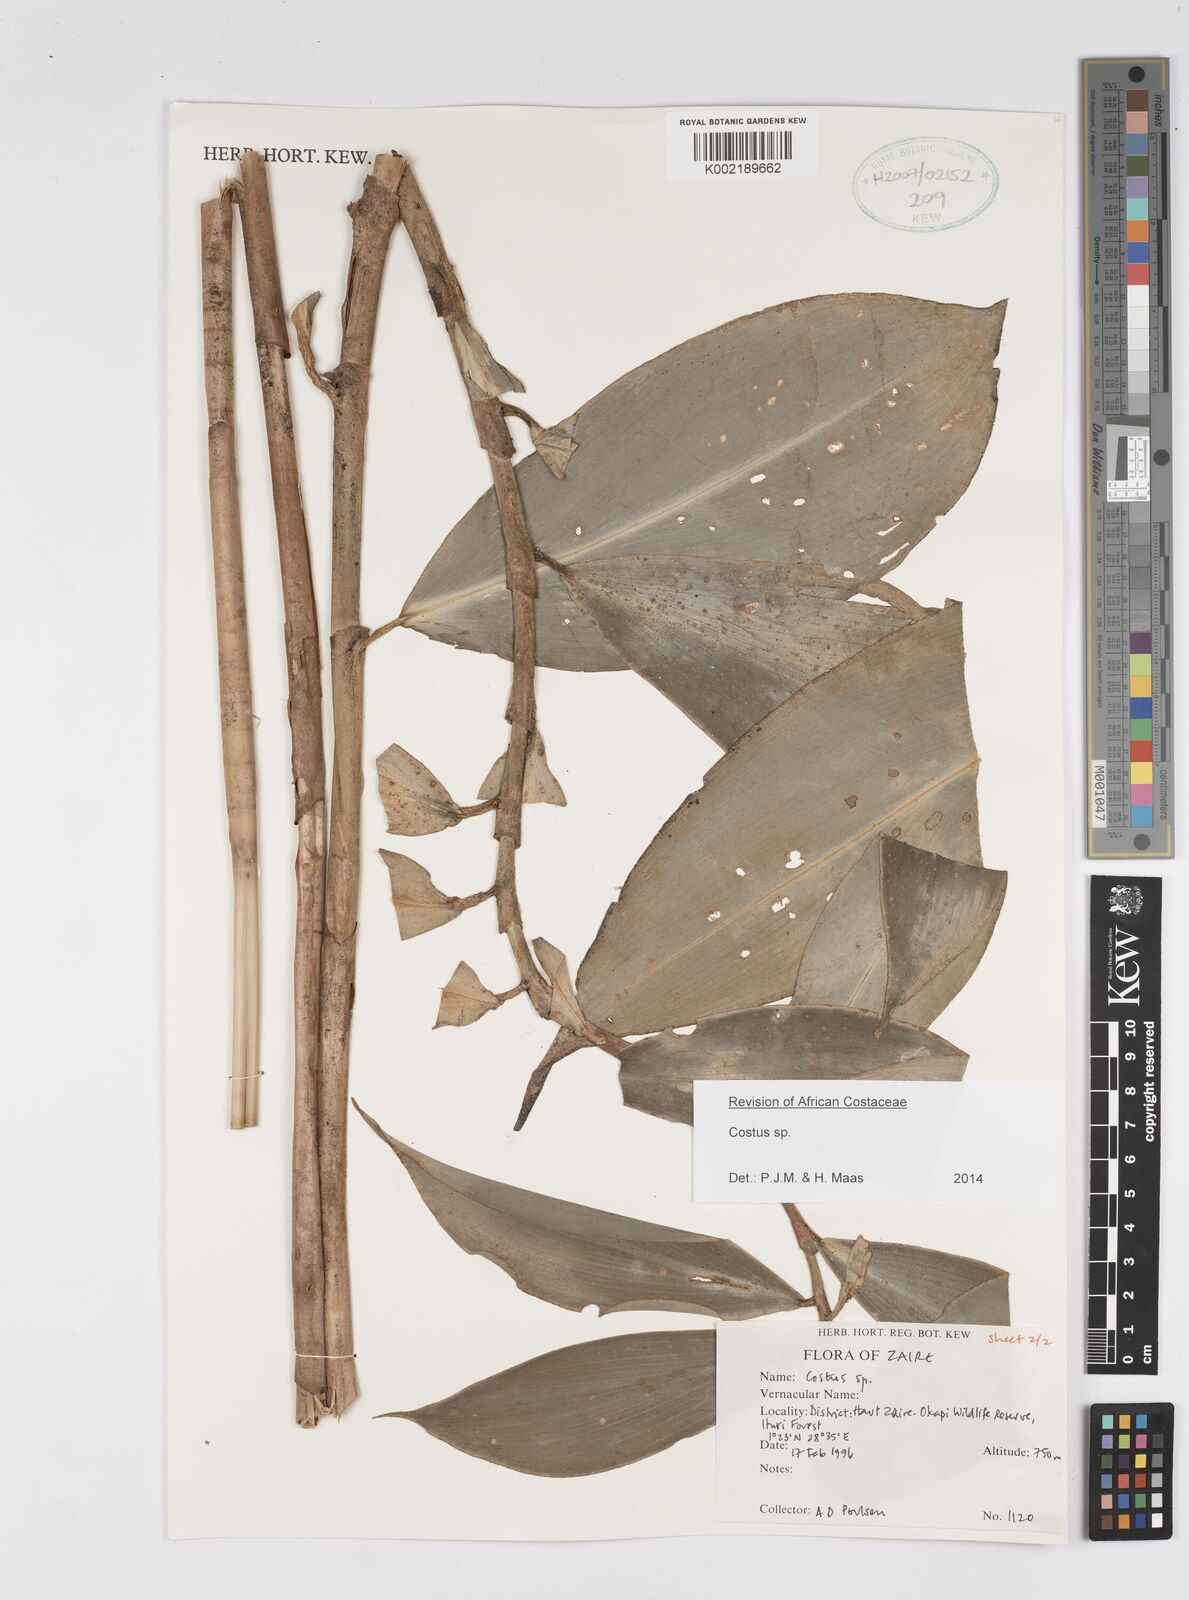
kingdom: Plantae
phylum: Tracheophyta
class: Liliopsida
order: Zingiberales
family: Costaceae
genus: Costus
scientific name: Costus
